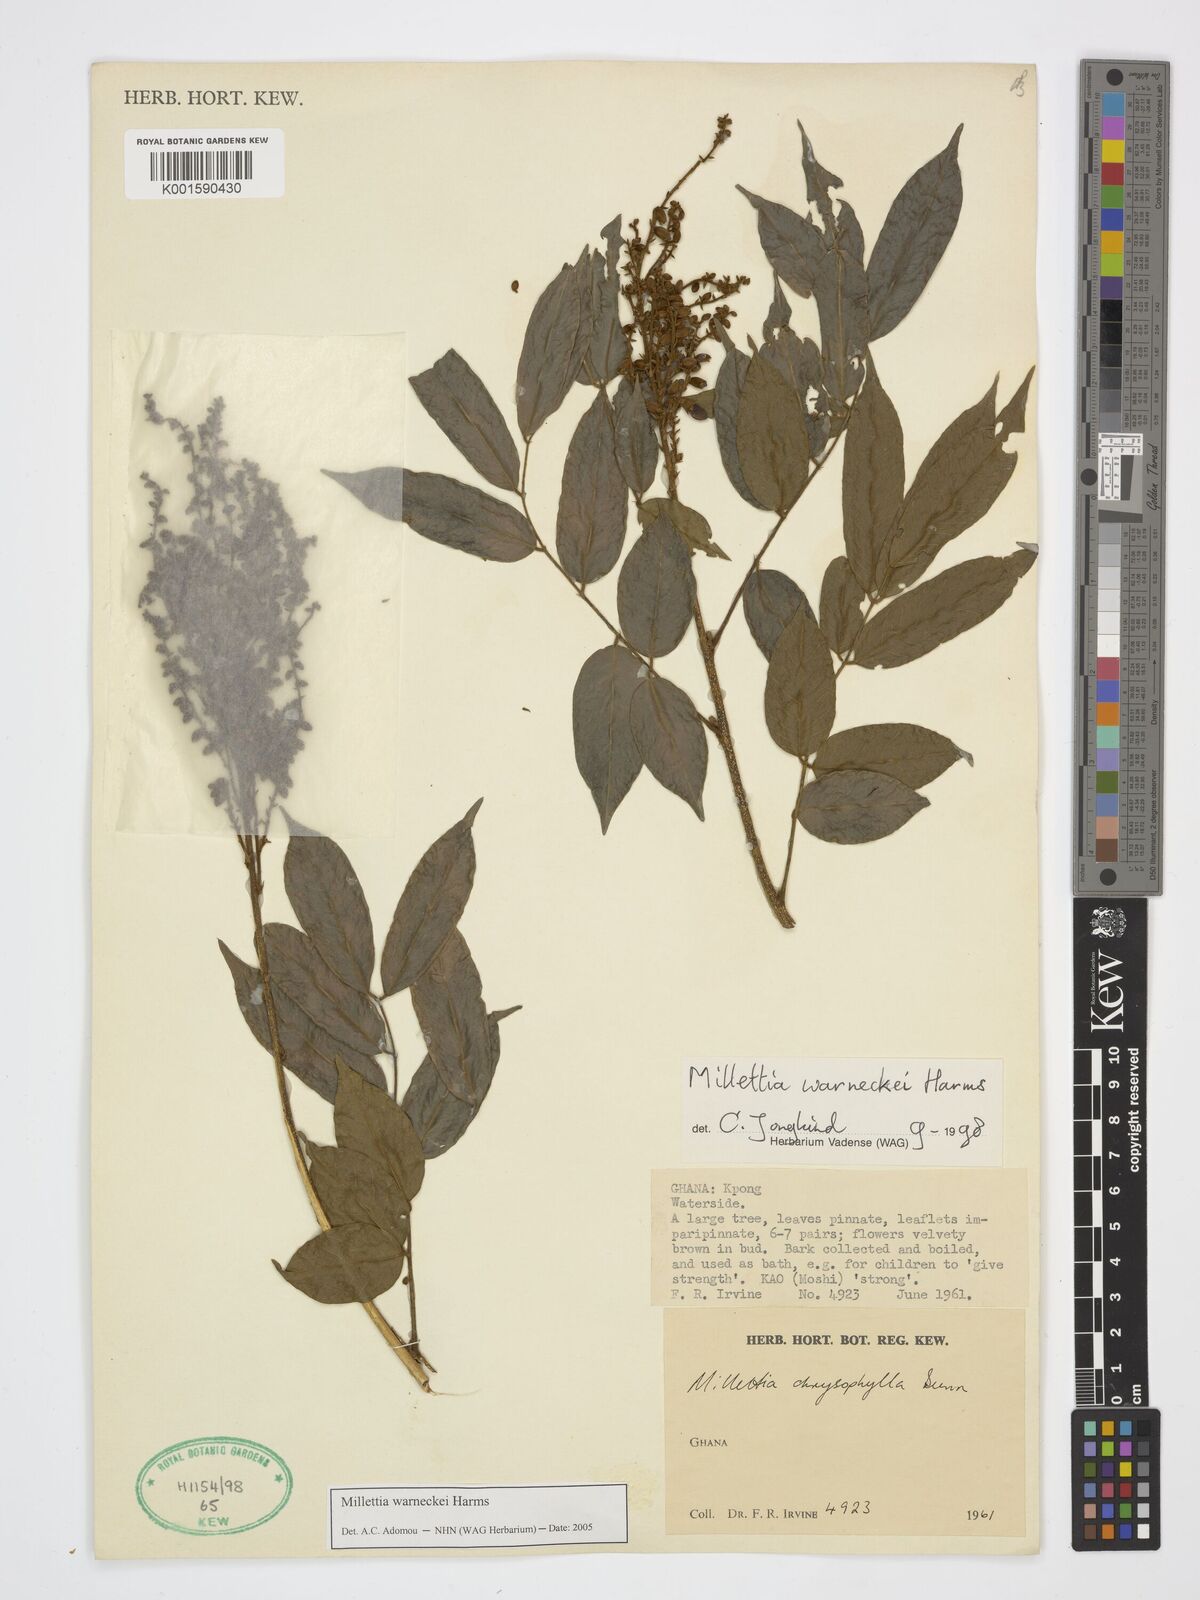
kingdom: Plantae
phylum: Tracheophyta
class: Magnoliopsida
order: Fabales
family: Fabaceae
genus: Millettia
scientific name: Millettia warneckei
